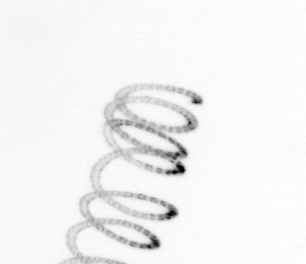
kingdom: Chromista
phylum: Ochrophyta
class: Bacillariophyceae
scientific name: Bacillariophyceae
